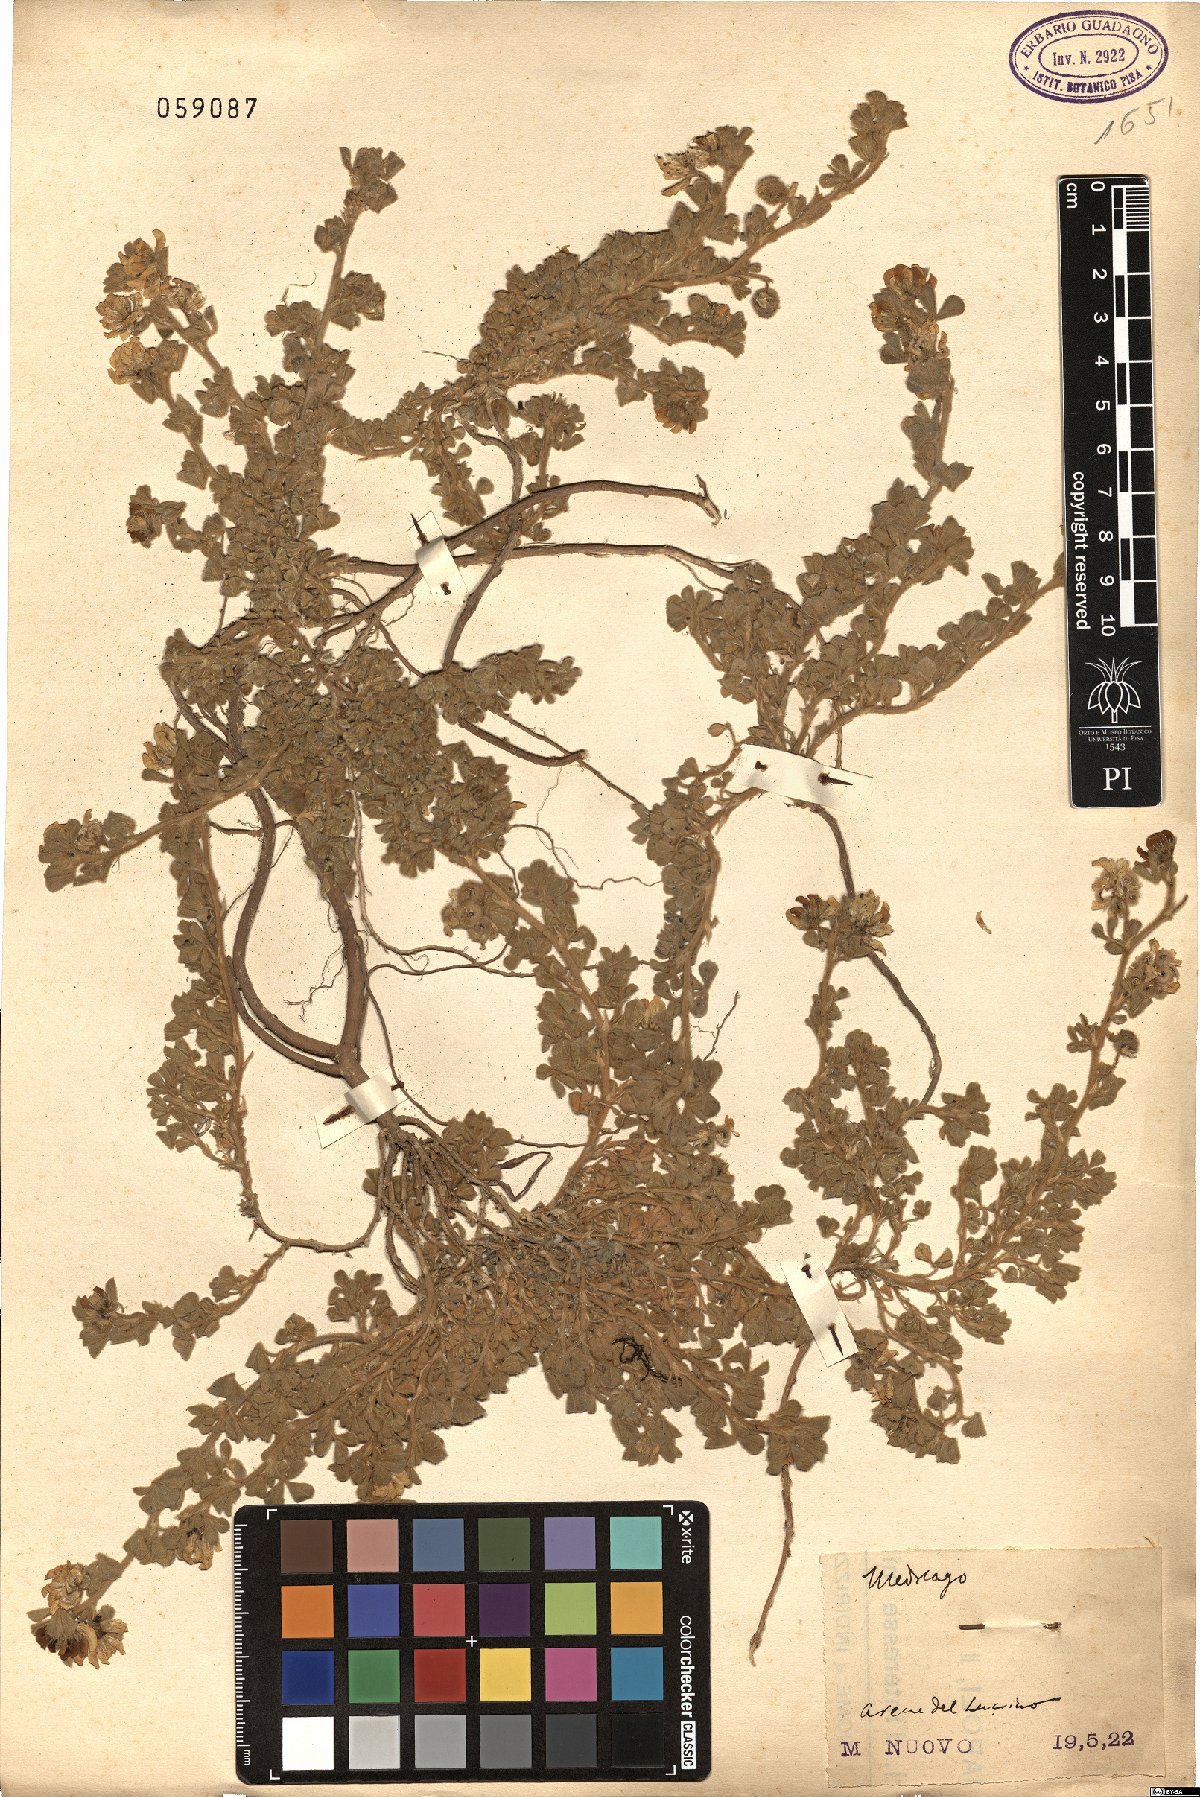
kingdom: Plantae
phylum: Tracheophyta
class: Magnoliopsida
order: Fabales
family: Fabaceae
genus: Medicago
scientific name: Medicago
